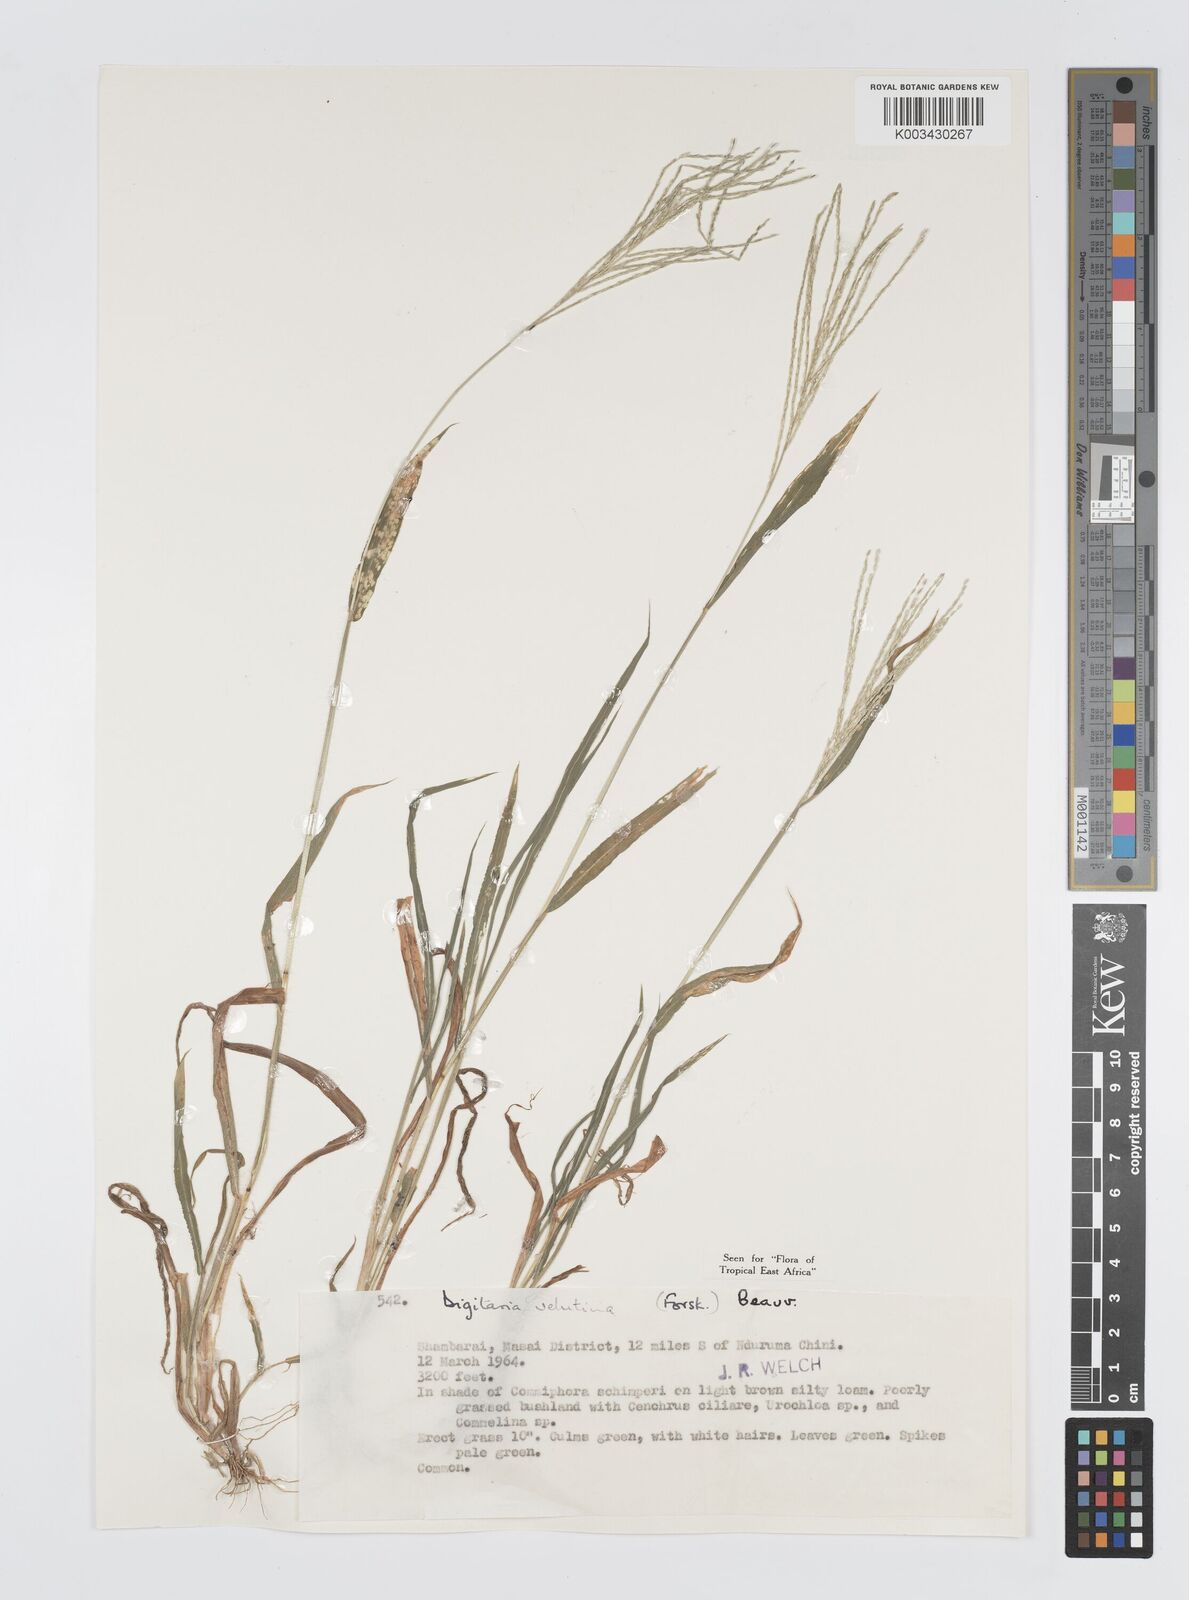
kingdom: Plantae
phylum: Tracheophyta
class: Liliopsida
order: Poales
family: Poaceae
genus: Digitaria
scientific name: Digitaria velutina
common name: Long-plume finger grass
